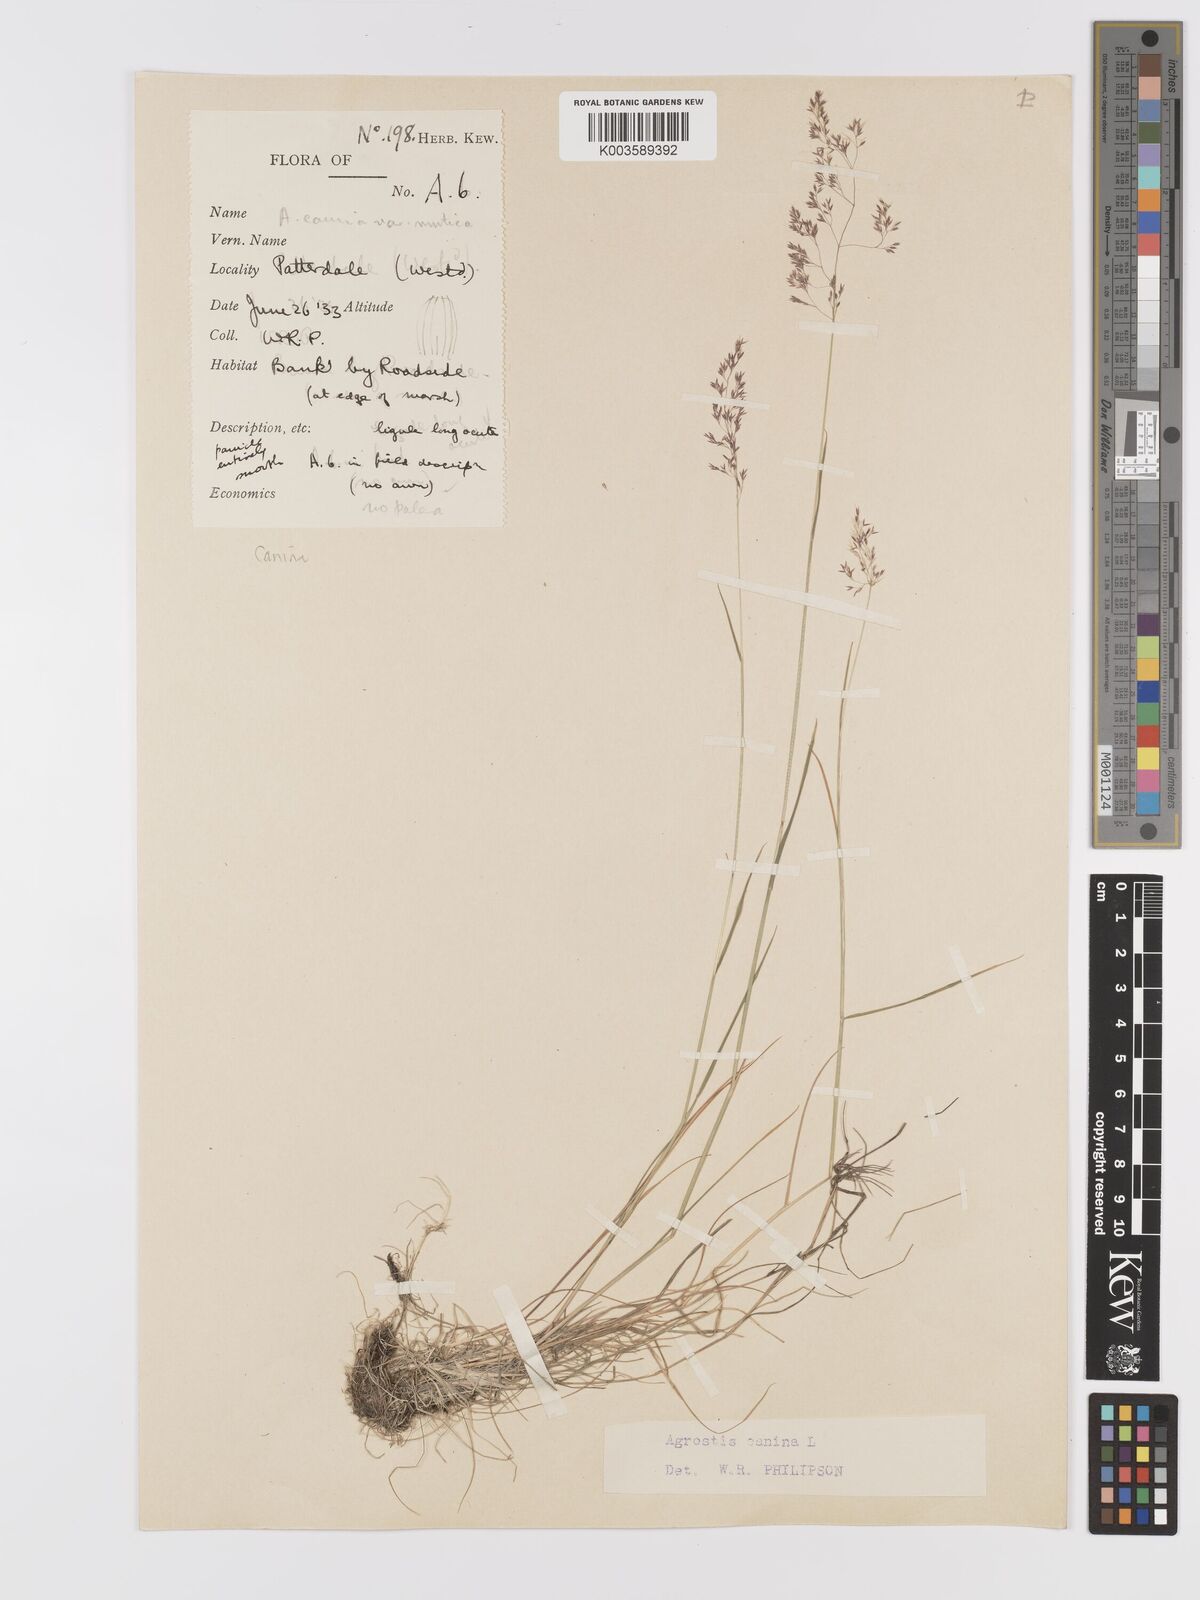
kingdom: Plantae
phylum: Tracheophyta
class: Liliopsida
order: Poales
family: Poaceae
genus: Agrostis
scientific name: Agrostis canina
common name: Velvet bent
